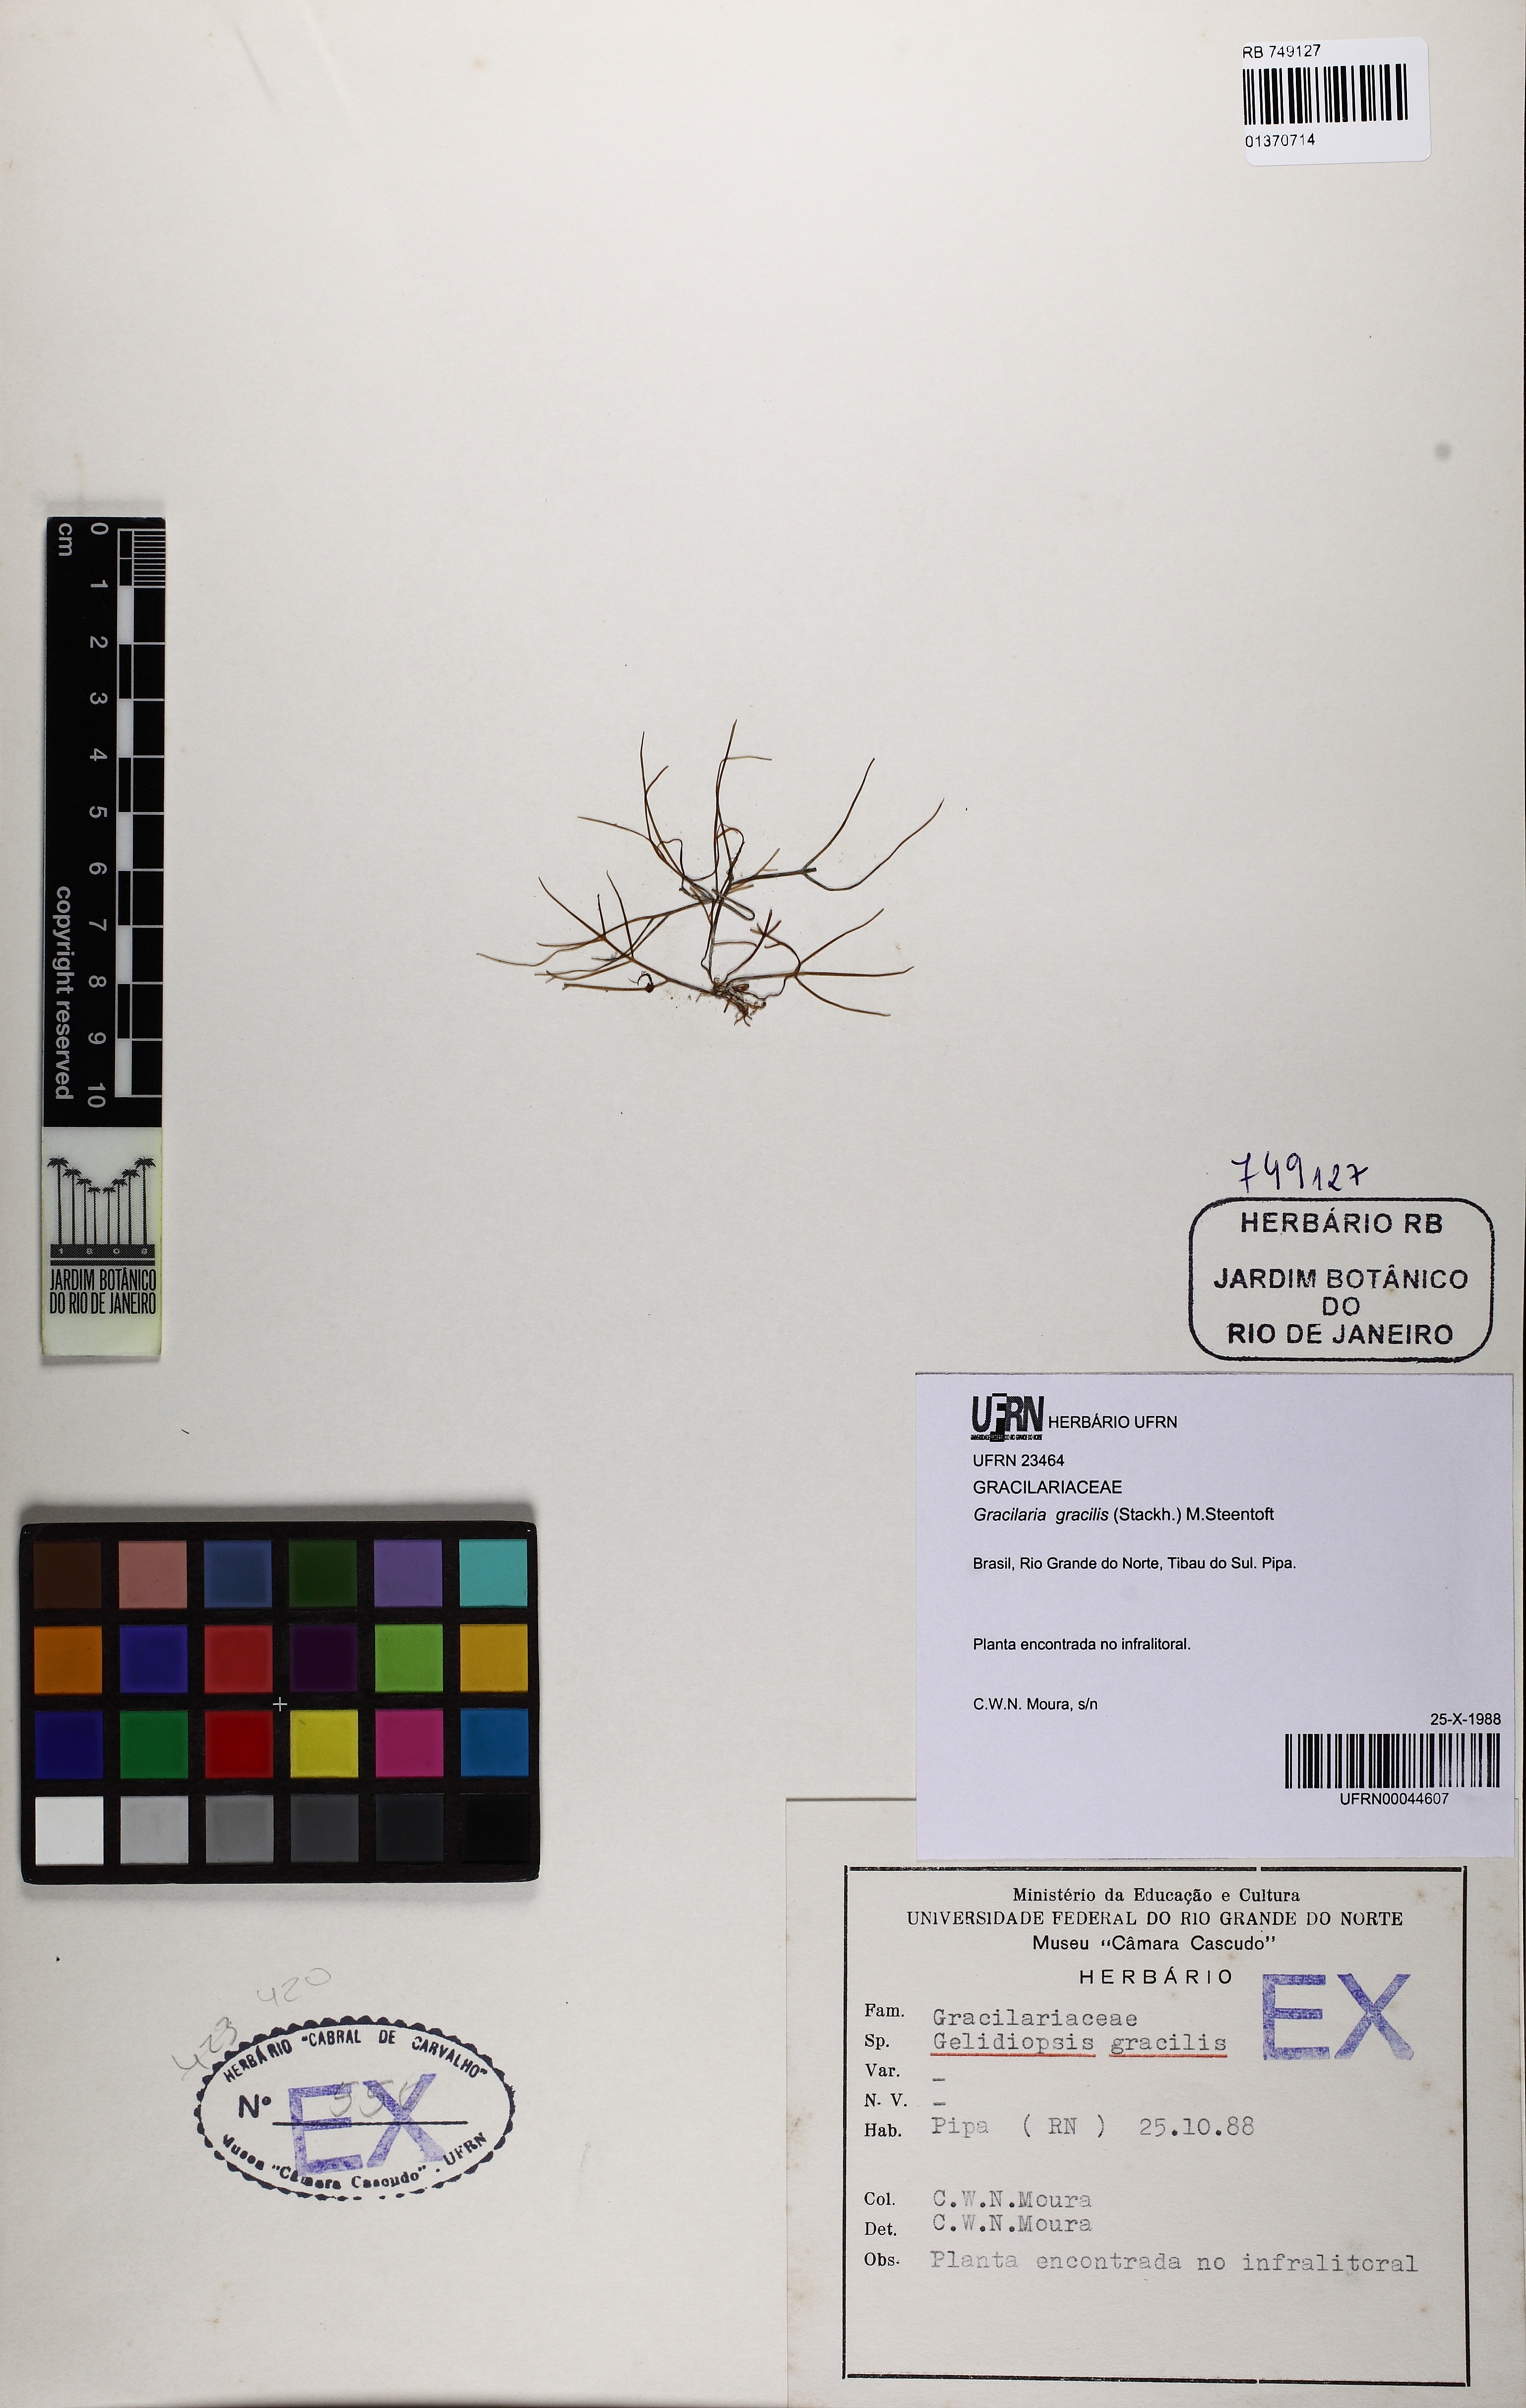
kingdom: Plantae
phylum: Rhodophyta
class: Florideophyceae
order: Gracilariales
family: Gracilariaceae
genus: Gracilaria
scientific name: Gracilaria gracilis
